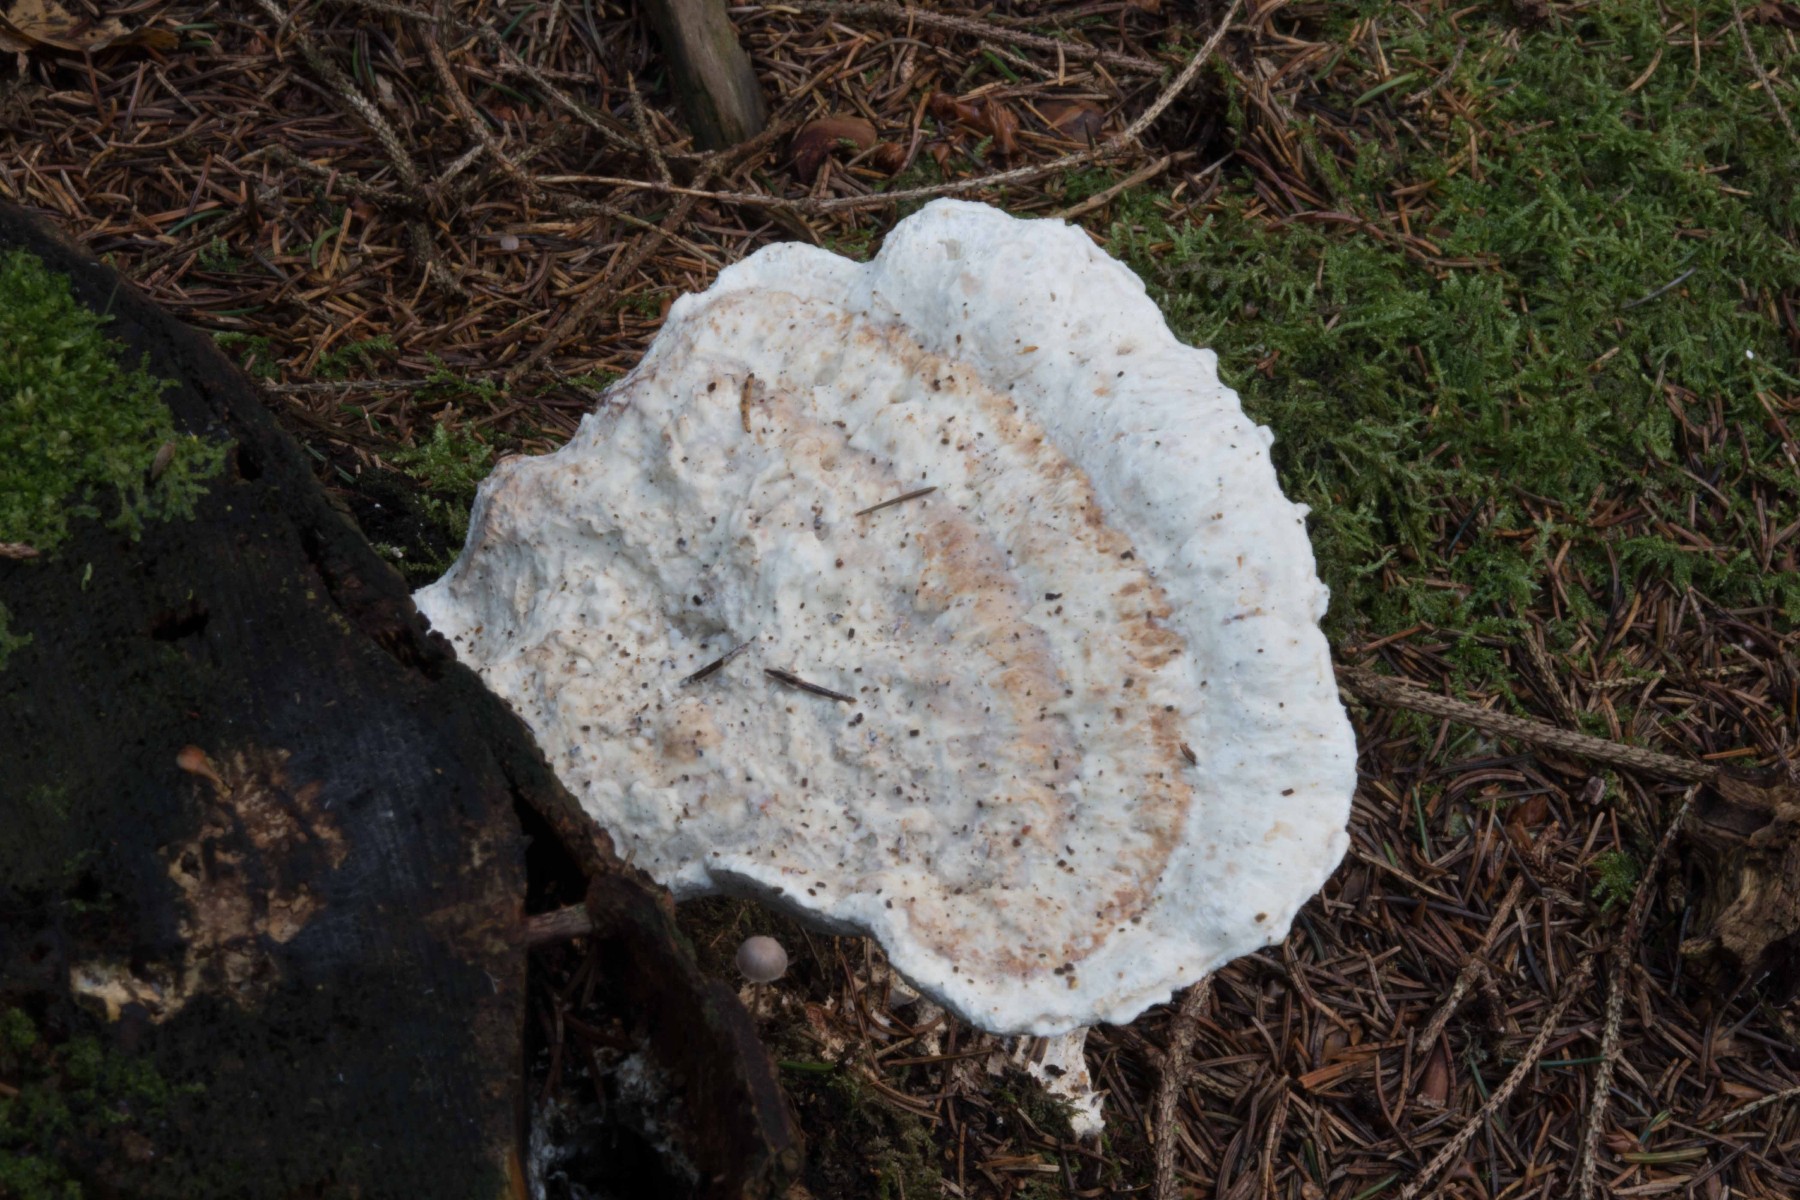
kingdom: Fungi
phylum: Basidiomycota
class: Agaricomycetes
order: Polyporales
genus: Calcipostia
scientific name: Calcipostia guttulata
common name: dråbe-kødporesvamp
